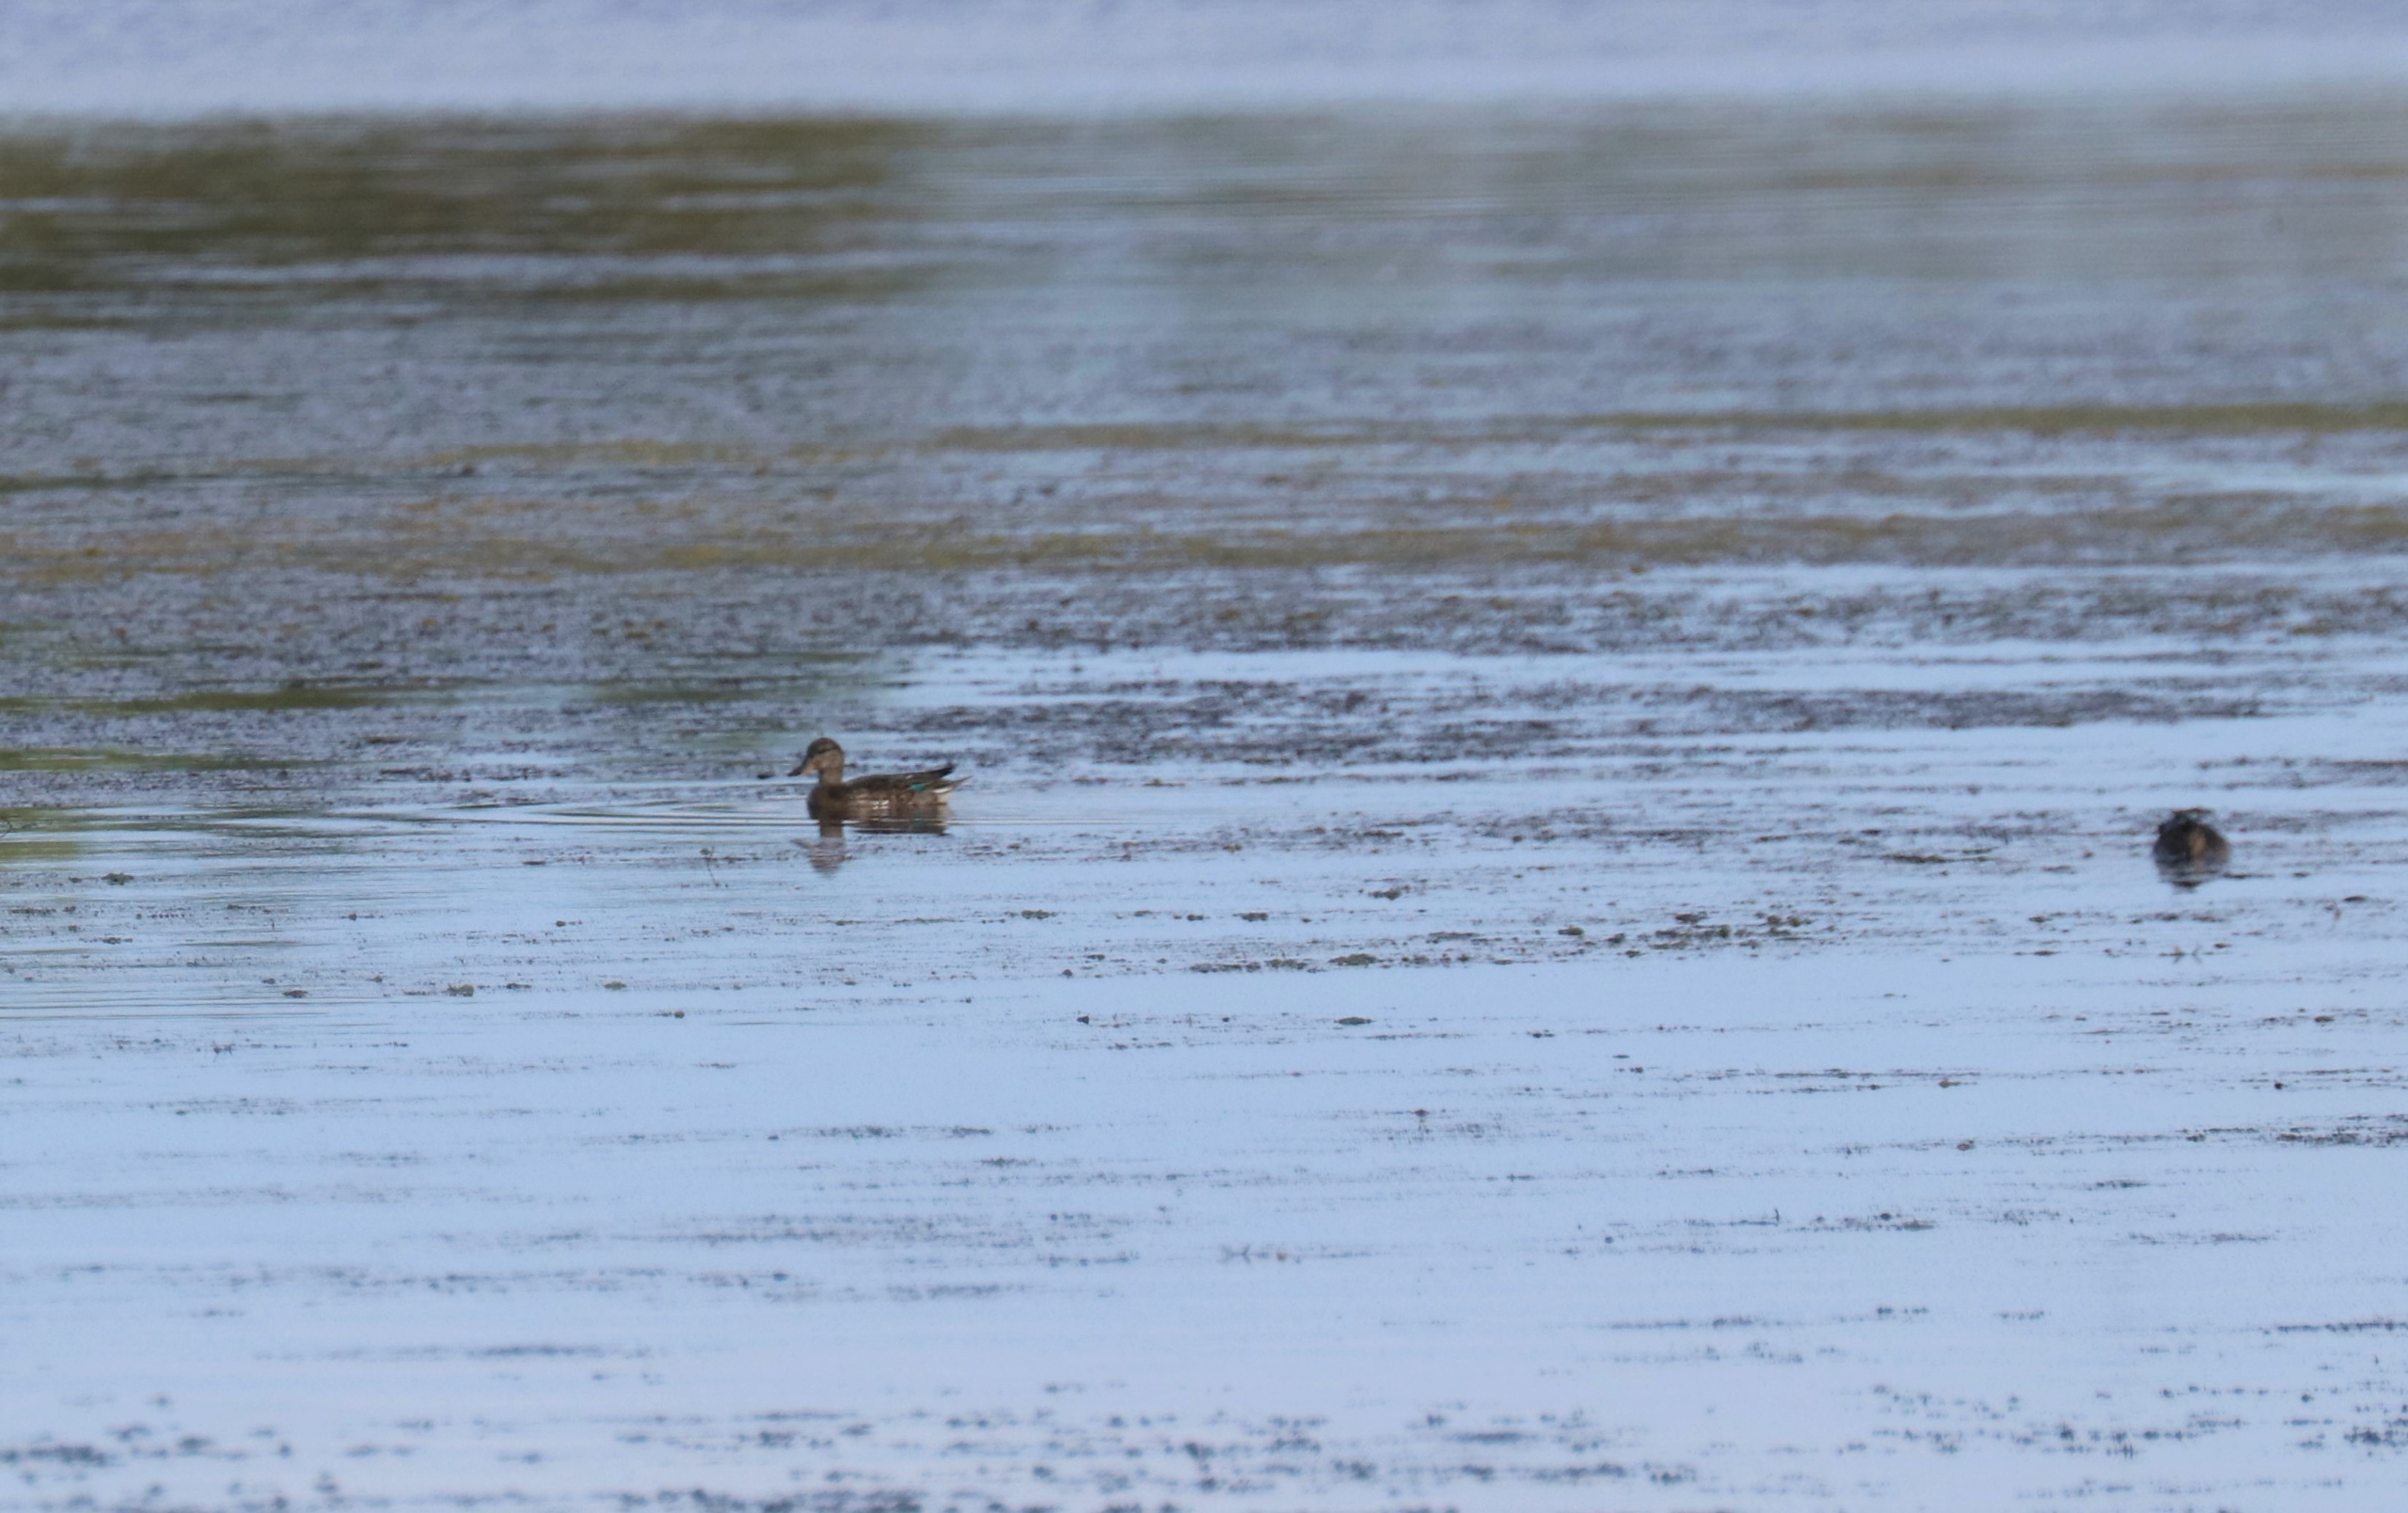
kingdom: Animalia
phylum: Chordata
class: Aves
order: Anseriformes
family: Anatidae
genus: Anas
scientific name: Anas crecca
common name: Krikand
